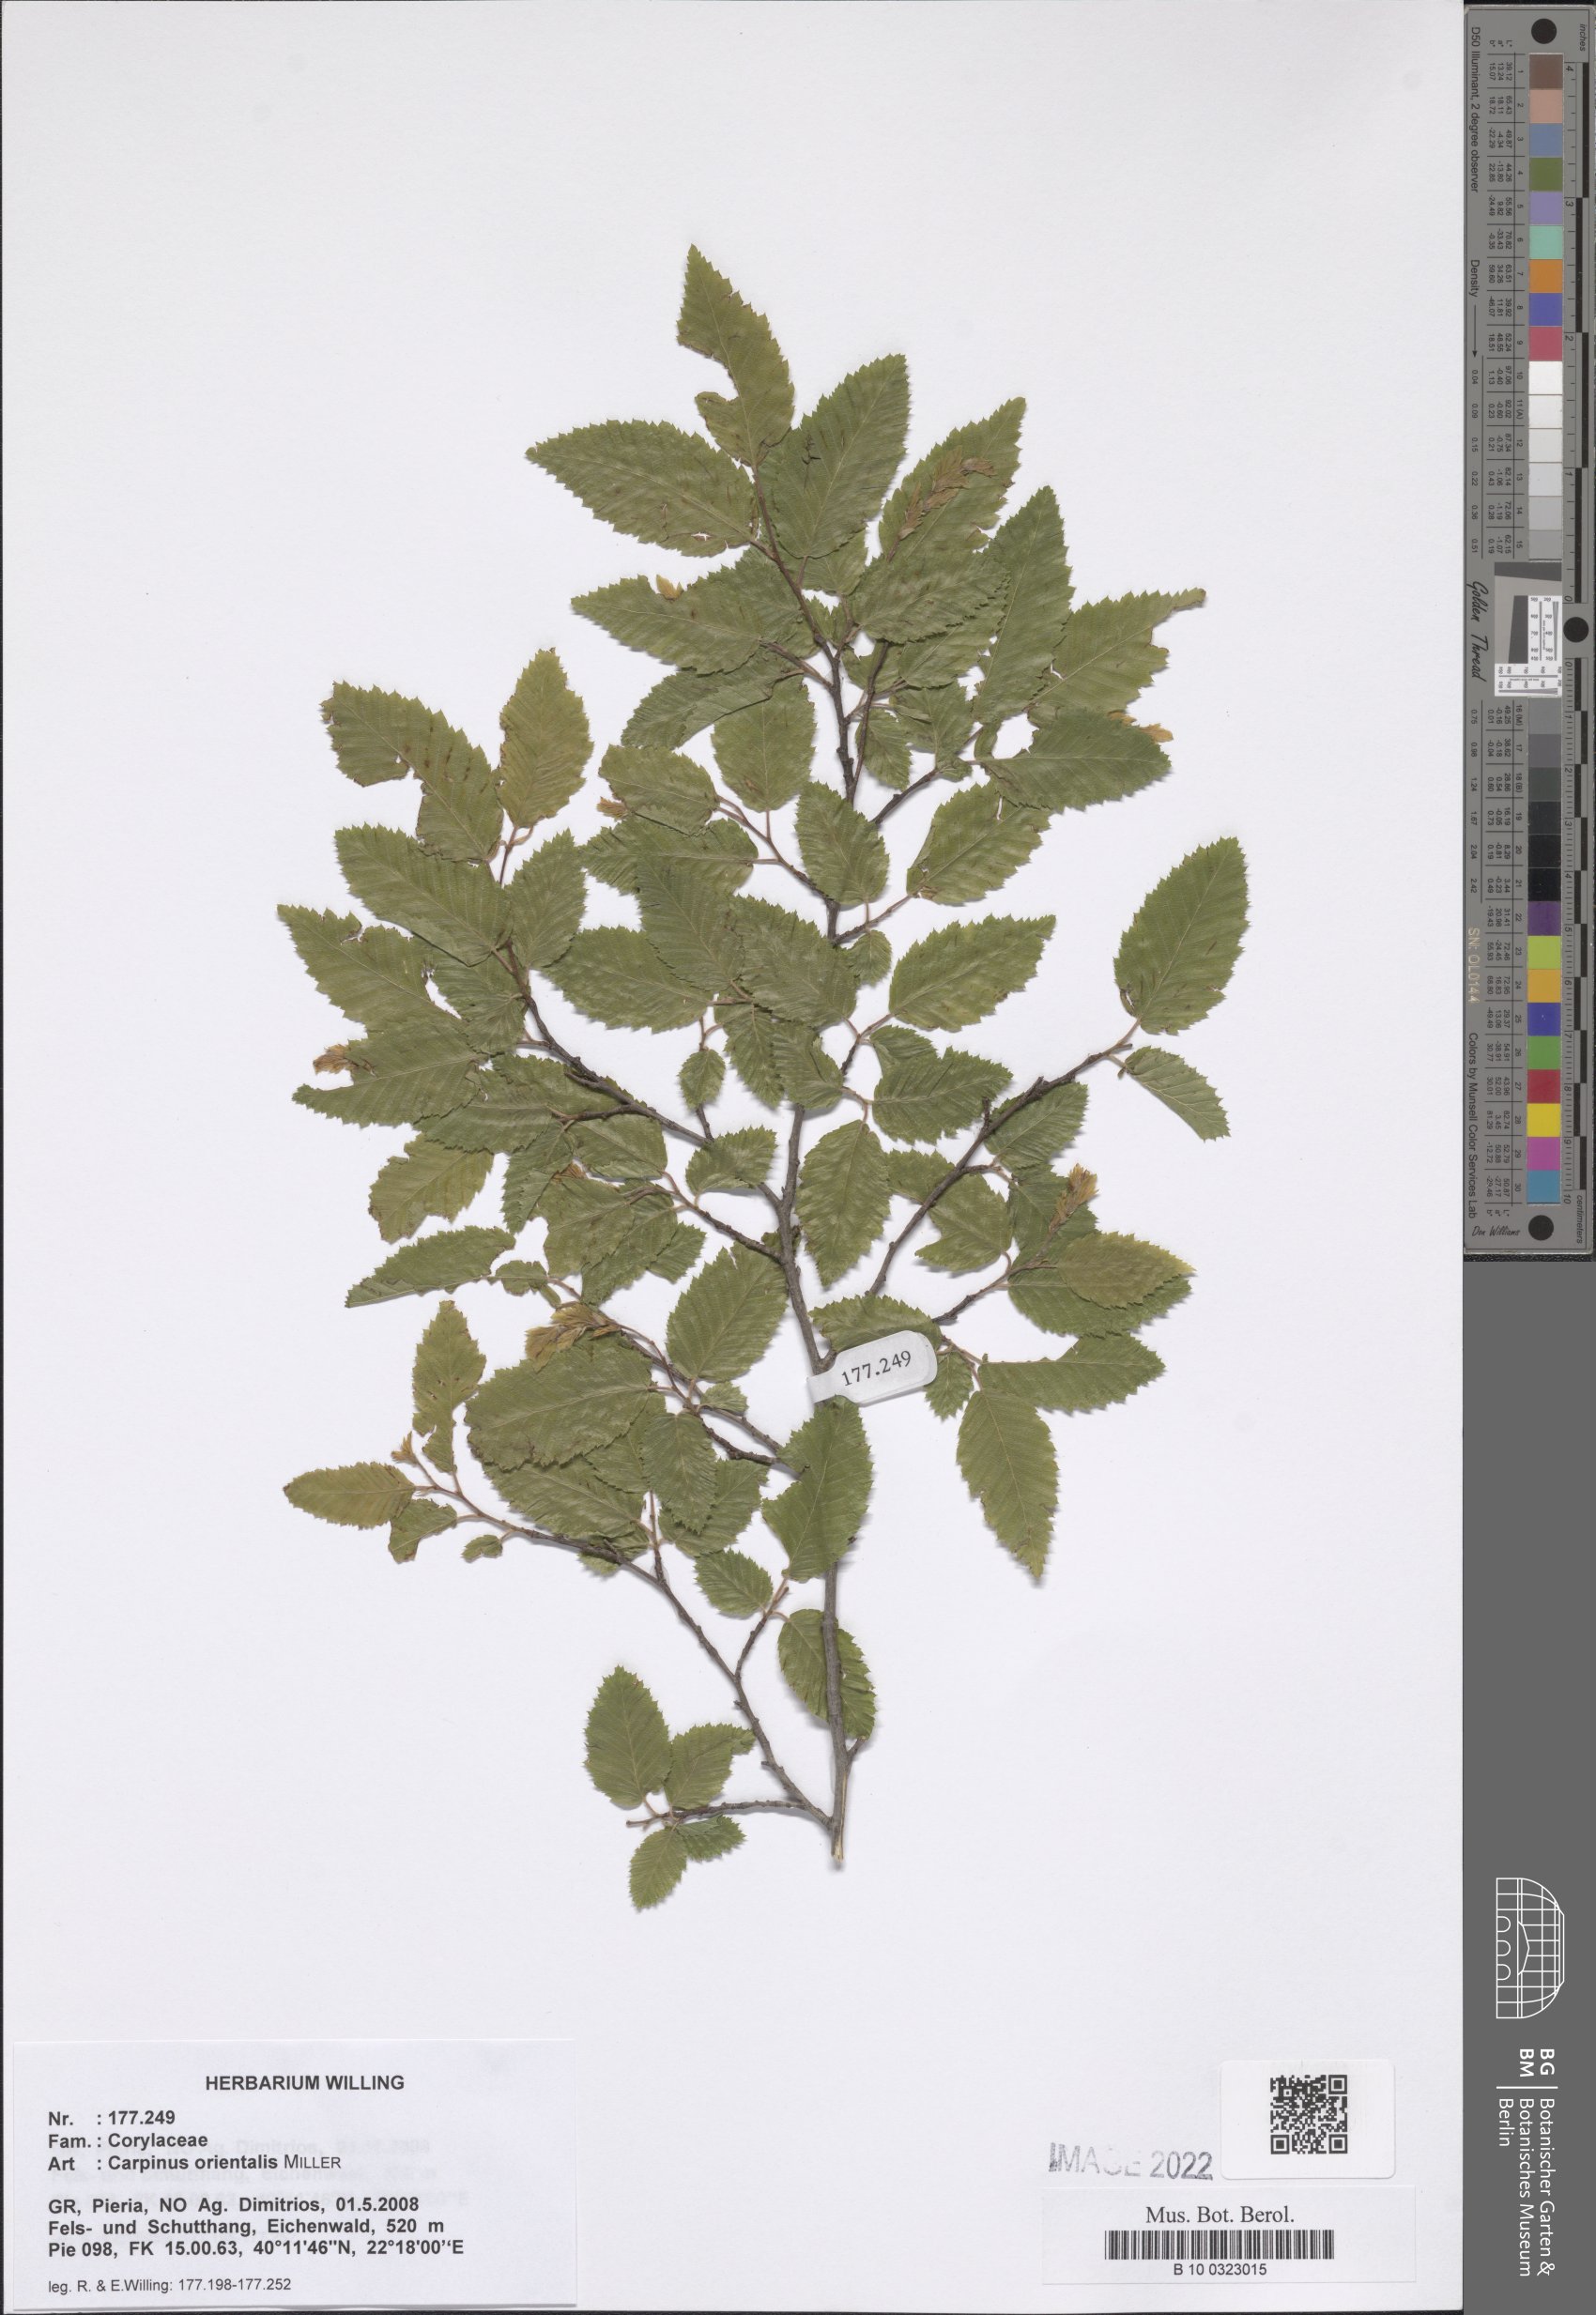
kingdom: Plantae
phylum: Tracheophyta
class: Magnoliopsida
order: Fagales
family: Betulaceae
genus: Carpinus
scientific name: Carpinus orientalis
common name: Eastern hornbeam
